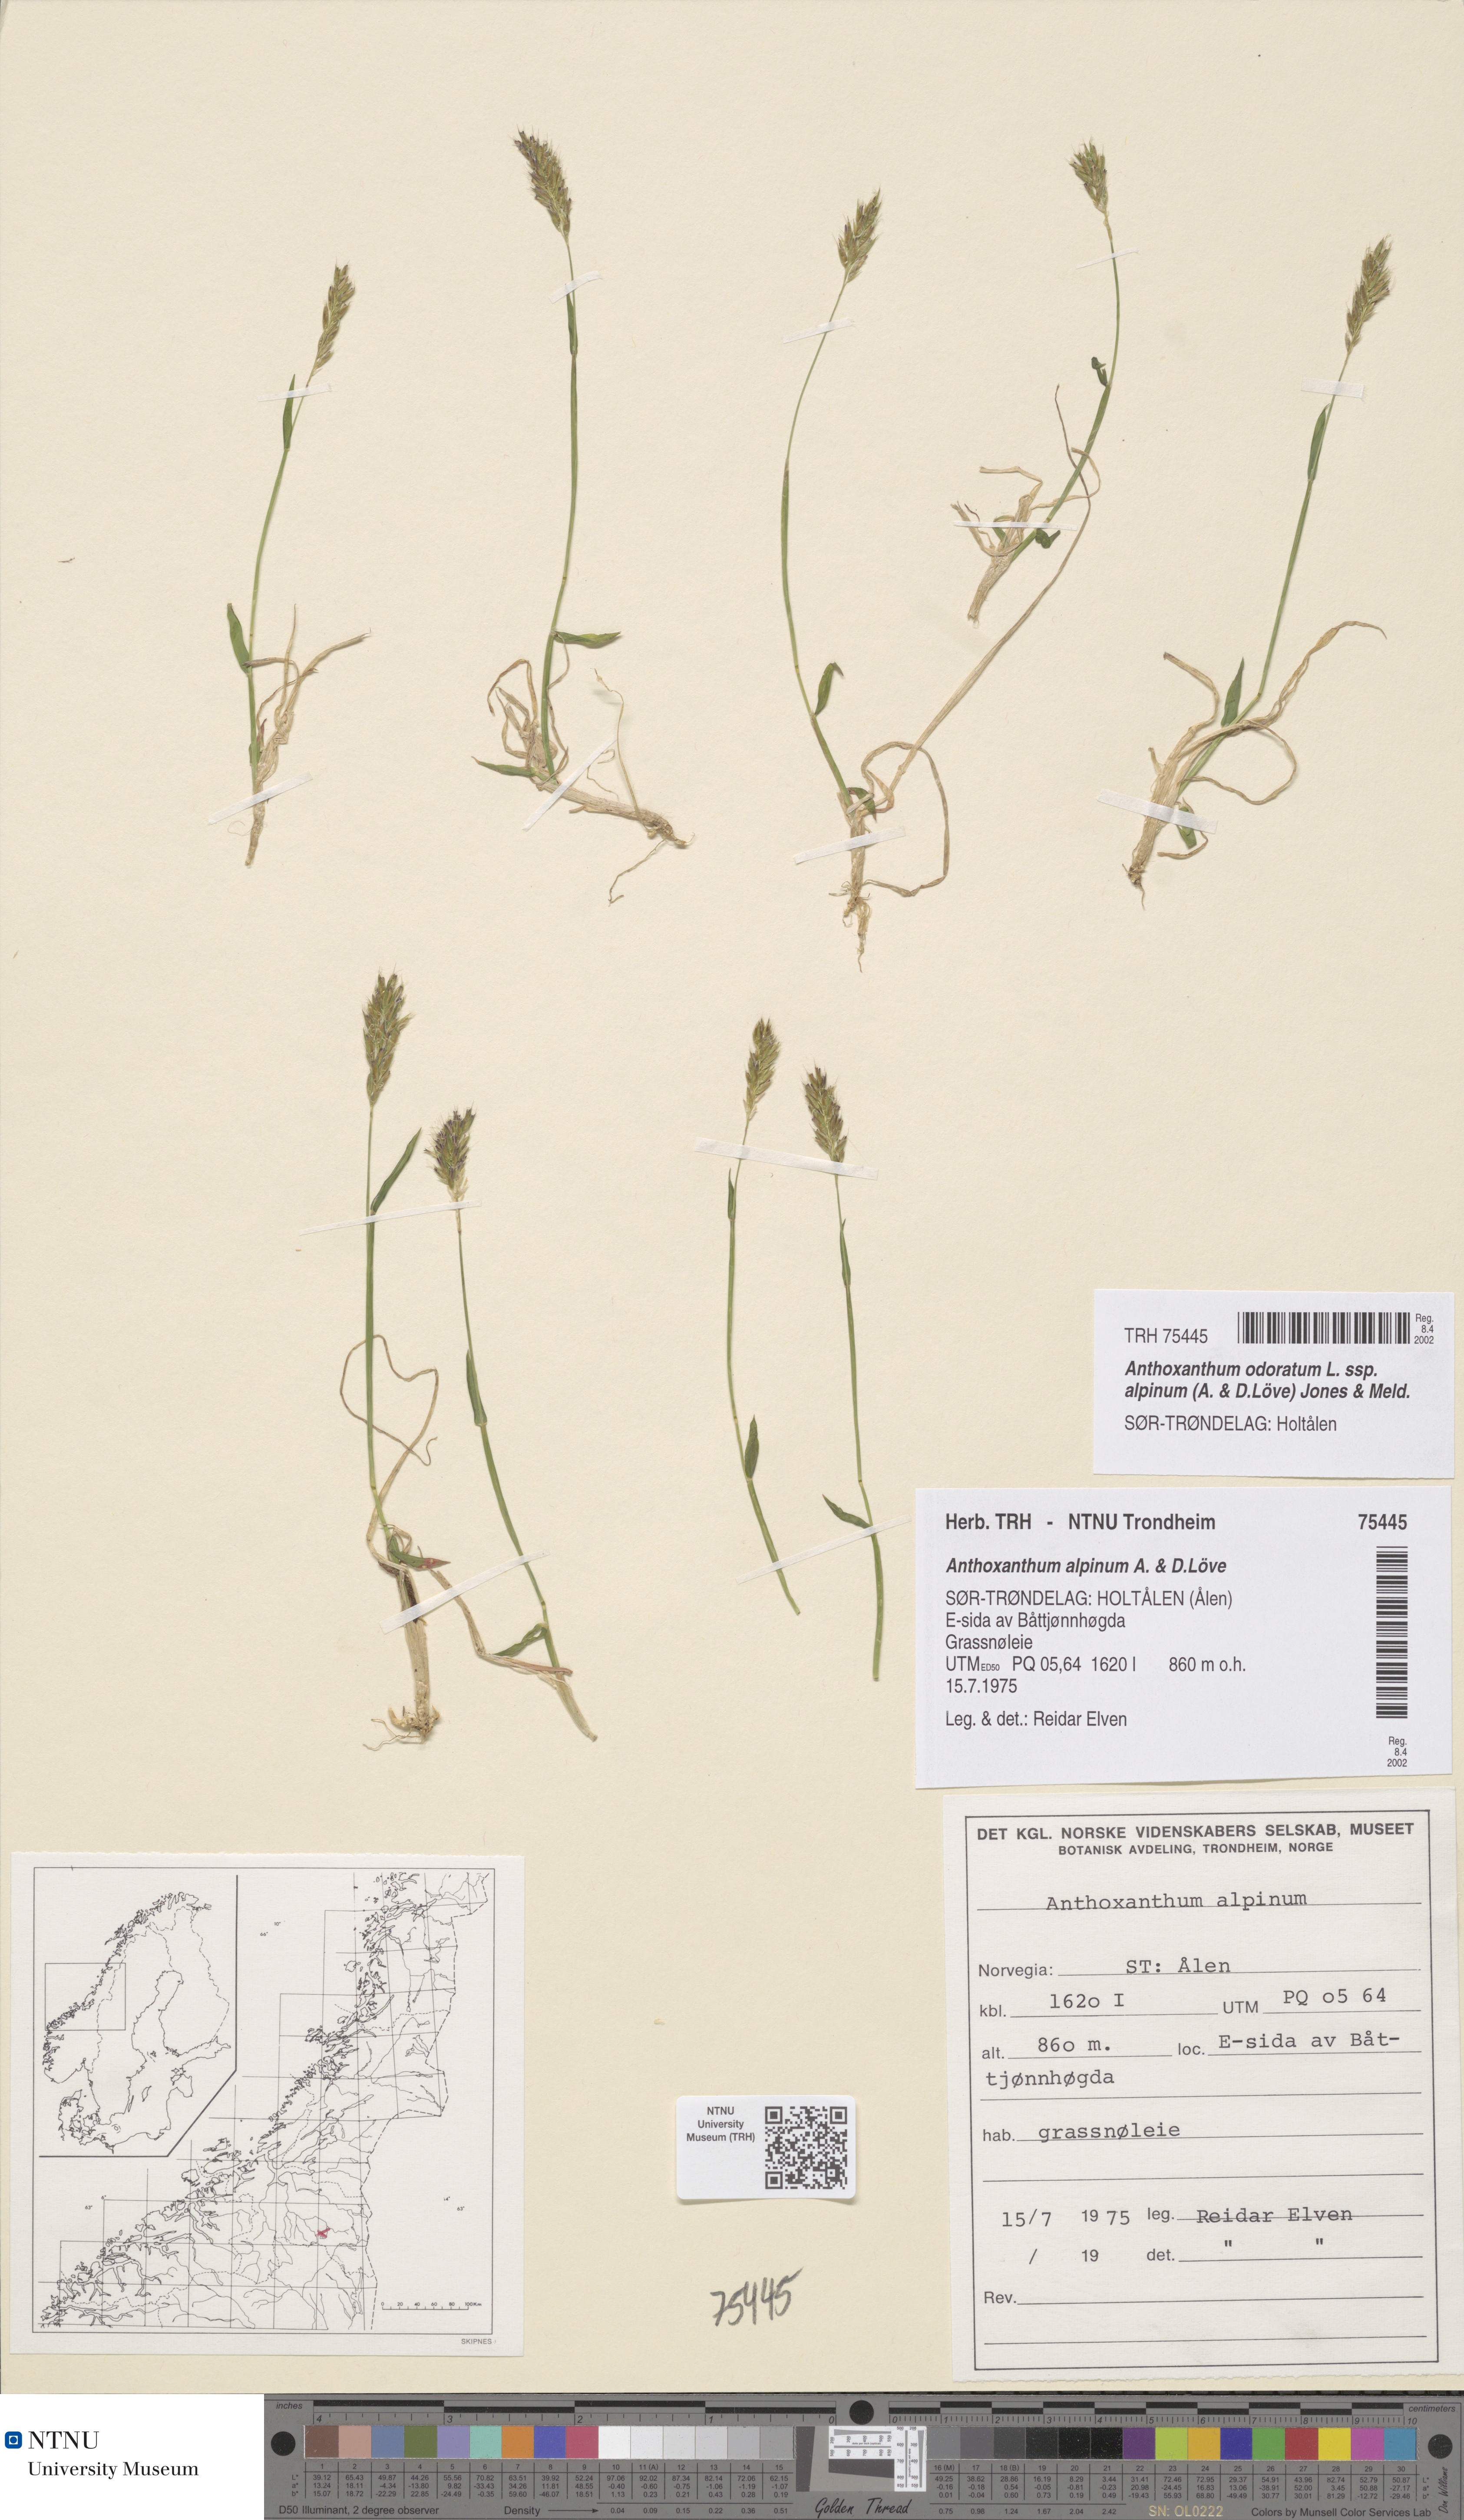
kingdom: Plantae
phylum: Tracheophyta
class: Liliopsida
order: Poales
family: Poaceae
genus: Anthoxanthum
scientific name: Anthoxanthum nipponicum
